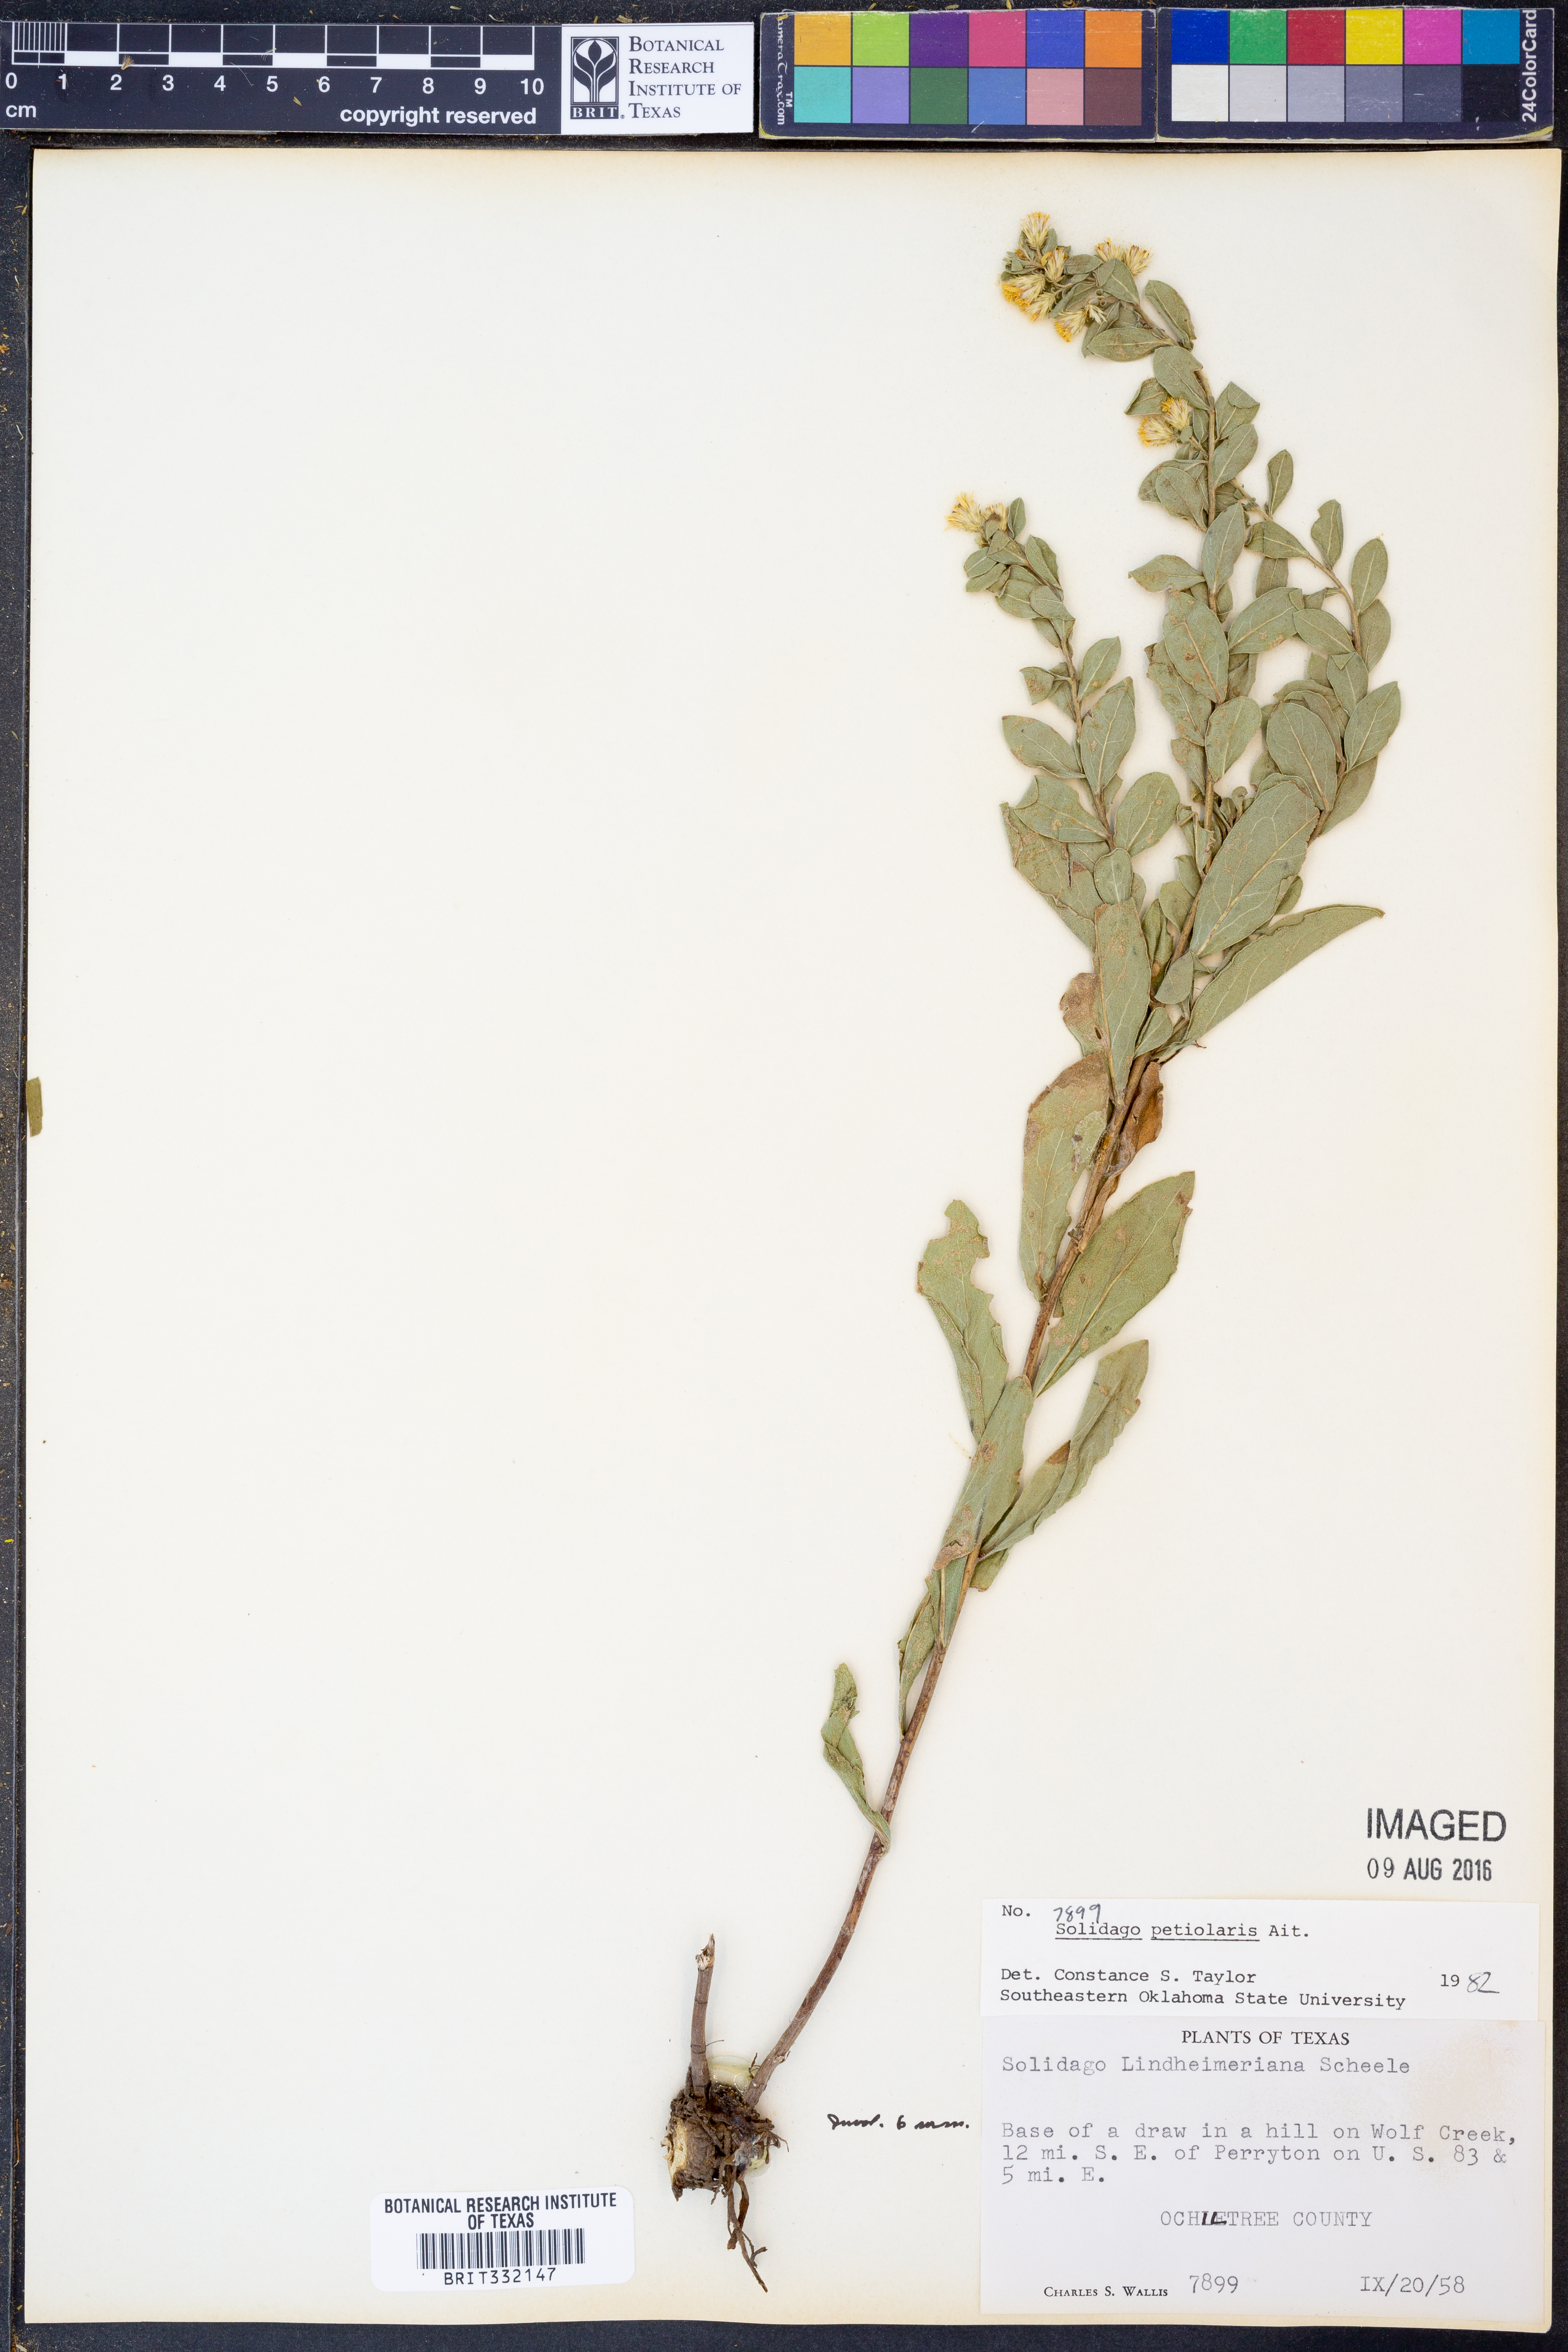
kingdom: Plantae
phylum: Tracheophyta
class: Magnoliopsida
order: Asterales
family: Asteraceae
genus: Solidago
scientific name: Solidago petiolaris
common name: Downy ragged goldenrod
